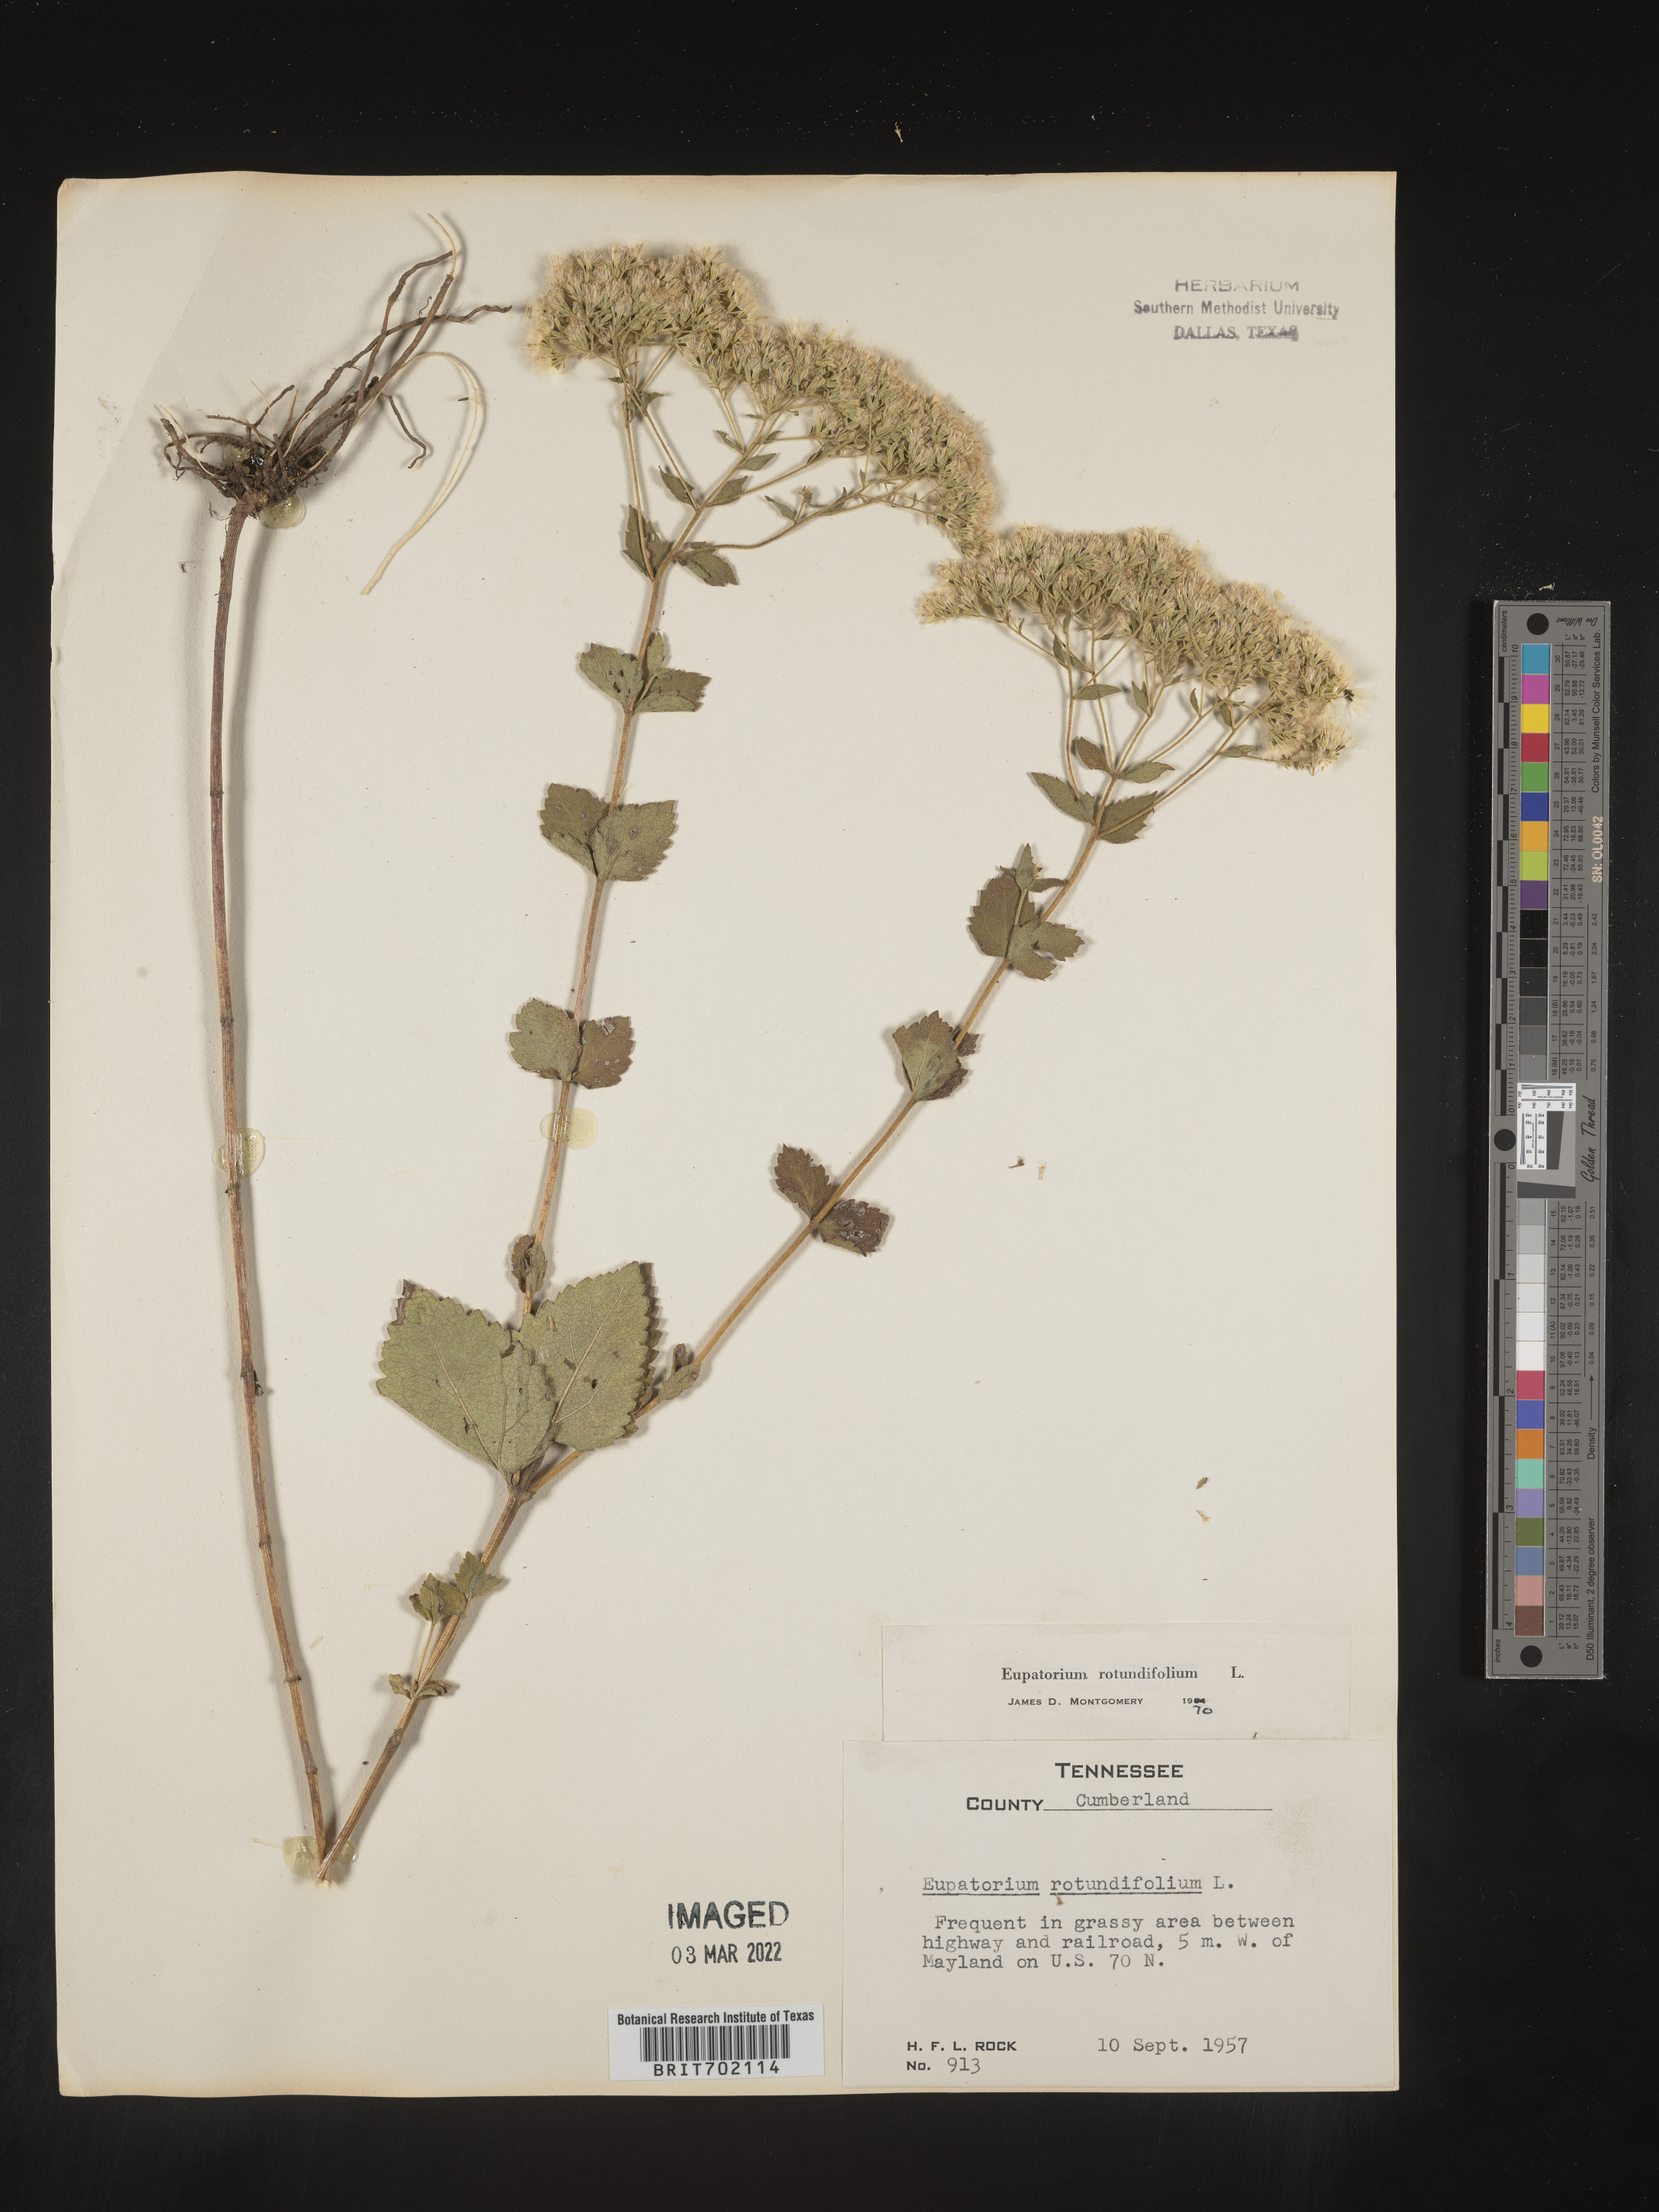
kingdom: Plantae
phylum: Tracheophyta
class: Magnoliopsida
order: Asterales
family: Asteraceae
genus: Eupatorium
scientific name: Eupatorium rotundifolium
